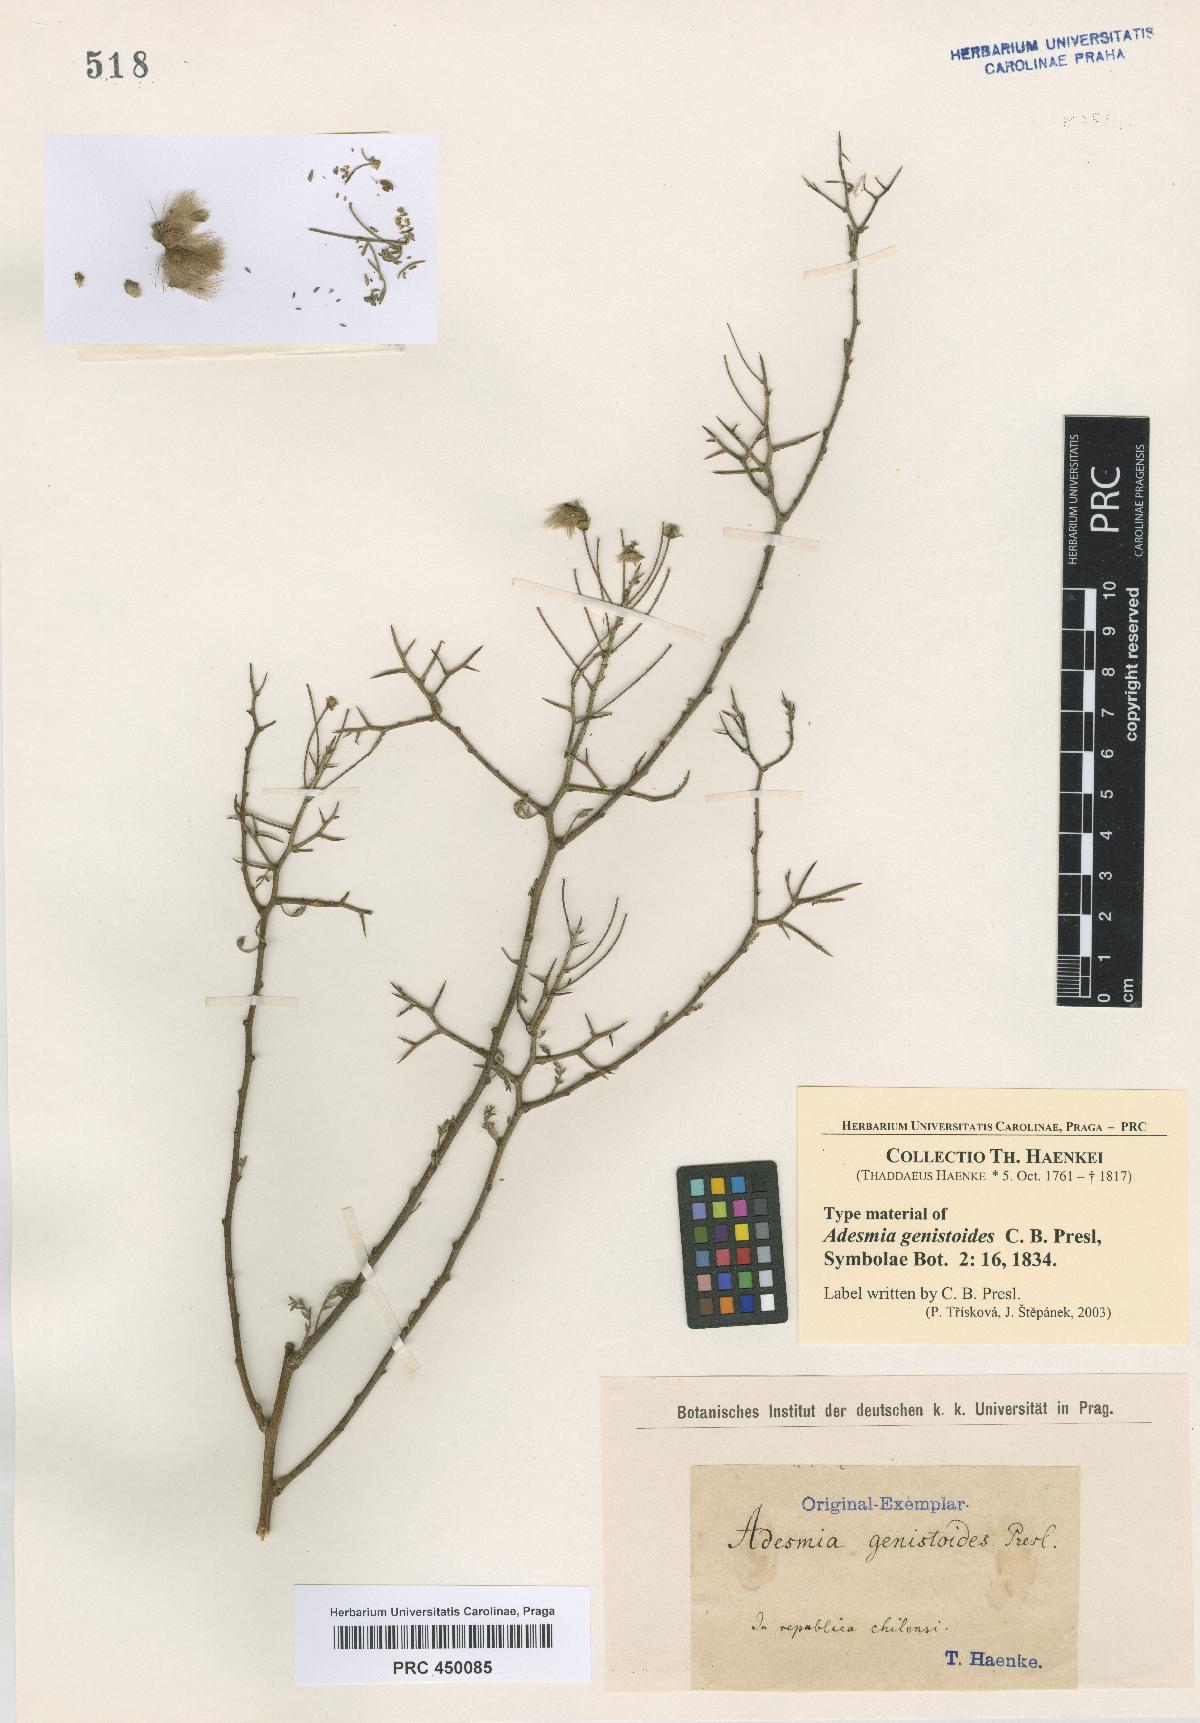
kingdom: Plantae
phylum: Tracheophyta
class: Magnoliopsida
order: Fabales
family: Fabaceae
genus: Adesmia
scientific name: Adesmia pedicellata
